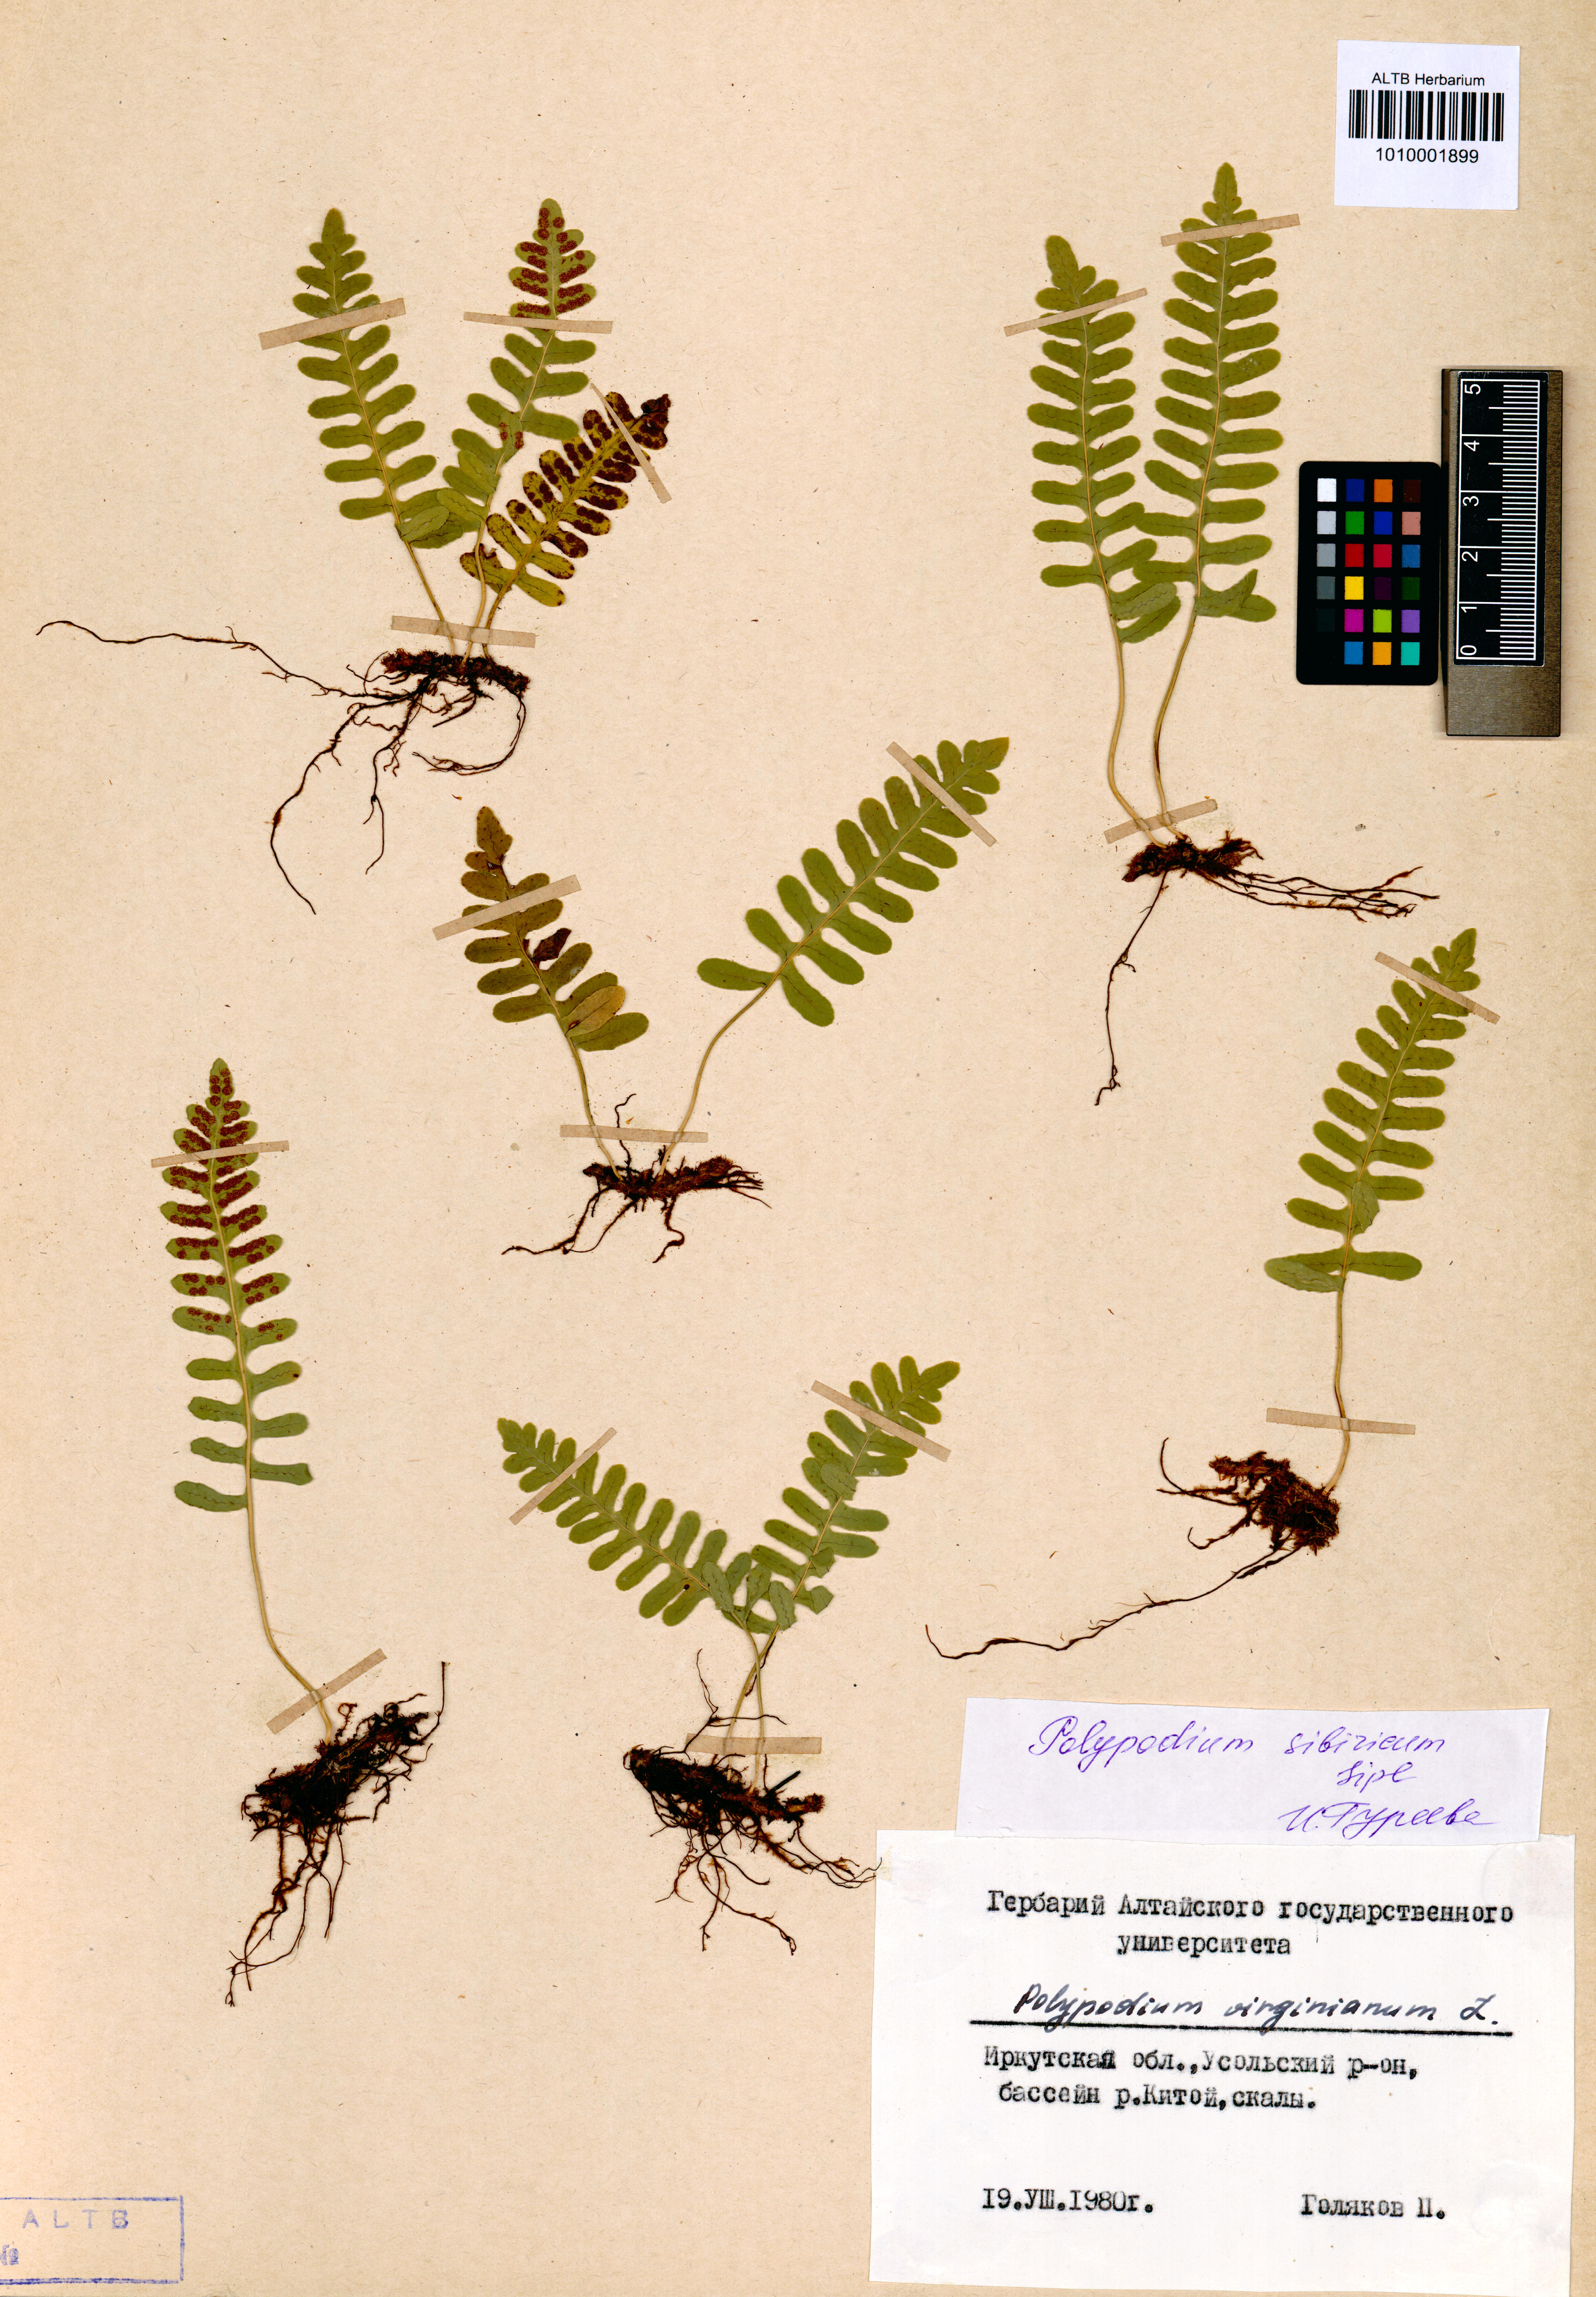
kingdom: Plantae
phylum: Tracheophyta
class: Polypodiopsida
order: Polypodiales
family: Polypodiaceae
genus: Polypodium
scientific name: Polypodium sibiricum
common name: Siberian polypody
